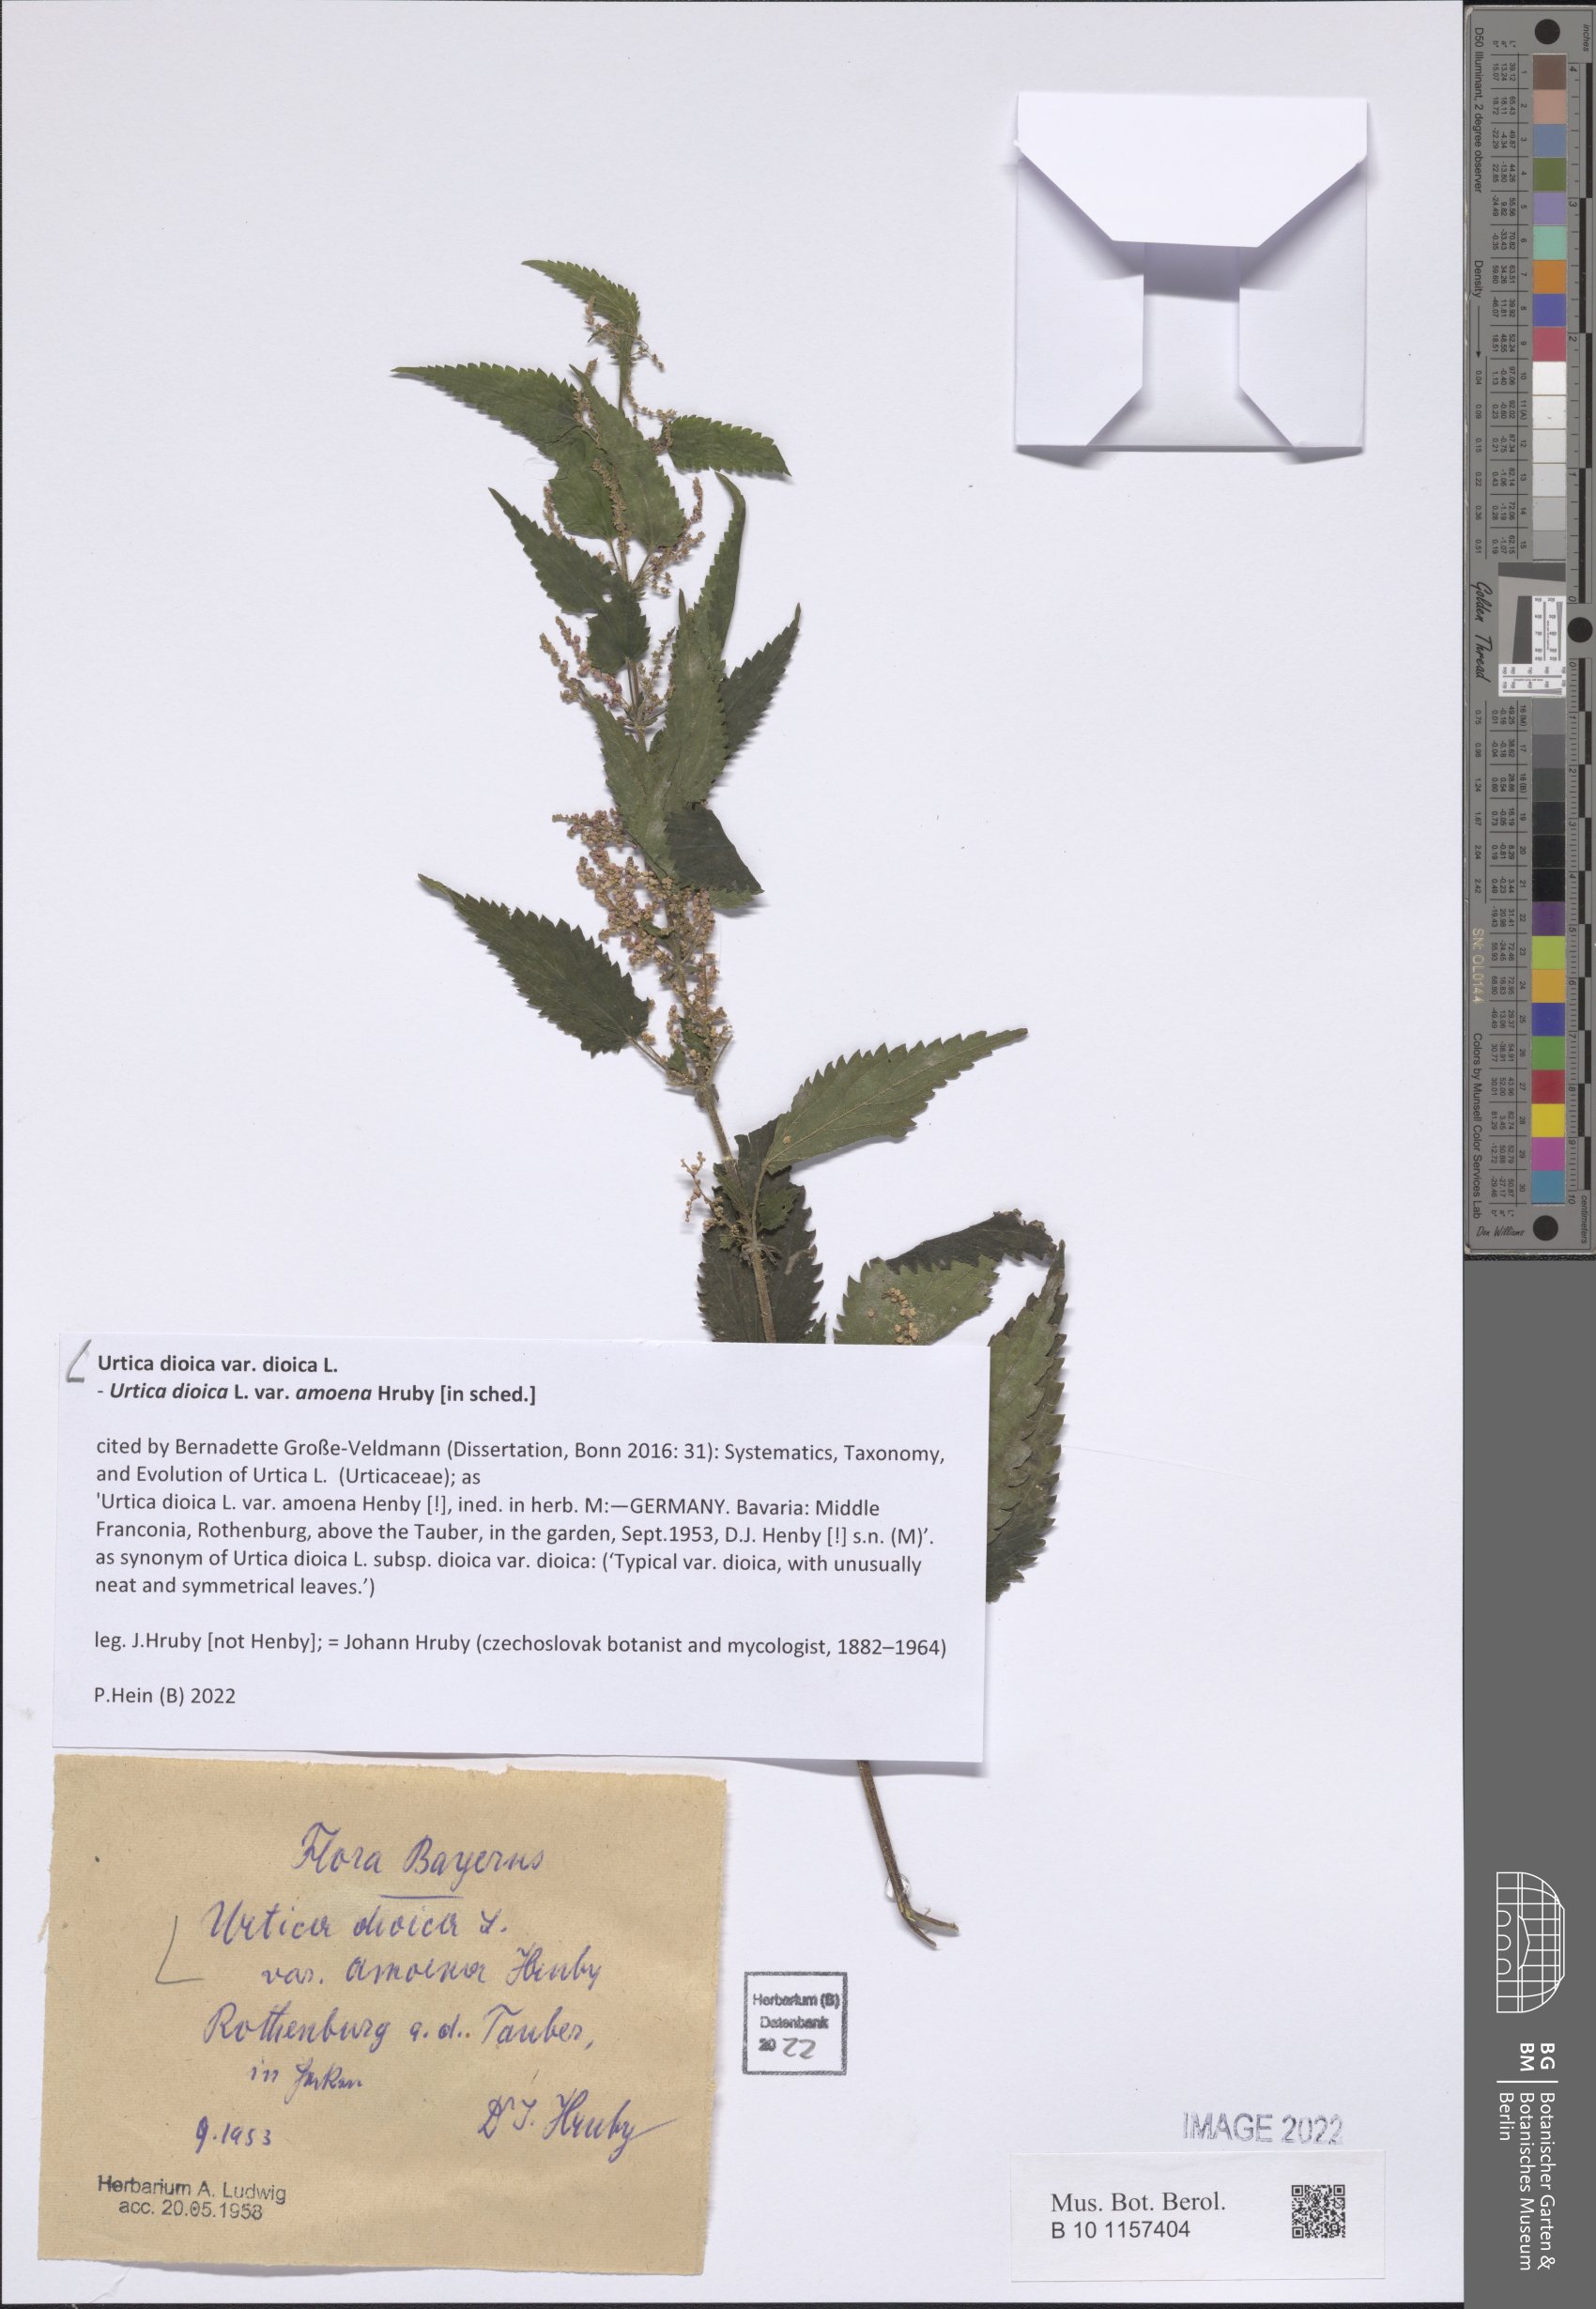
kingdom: Plantae
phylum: Tracheophyta
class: Magnoliopsida
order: Rosales
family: Urticaceae
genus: Urtica
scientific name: Urtica dioica
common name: Common nettle
